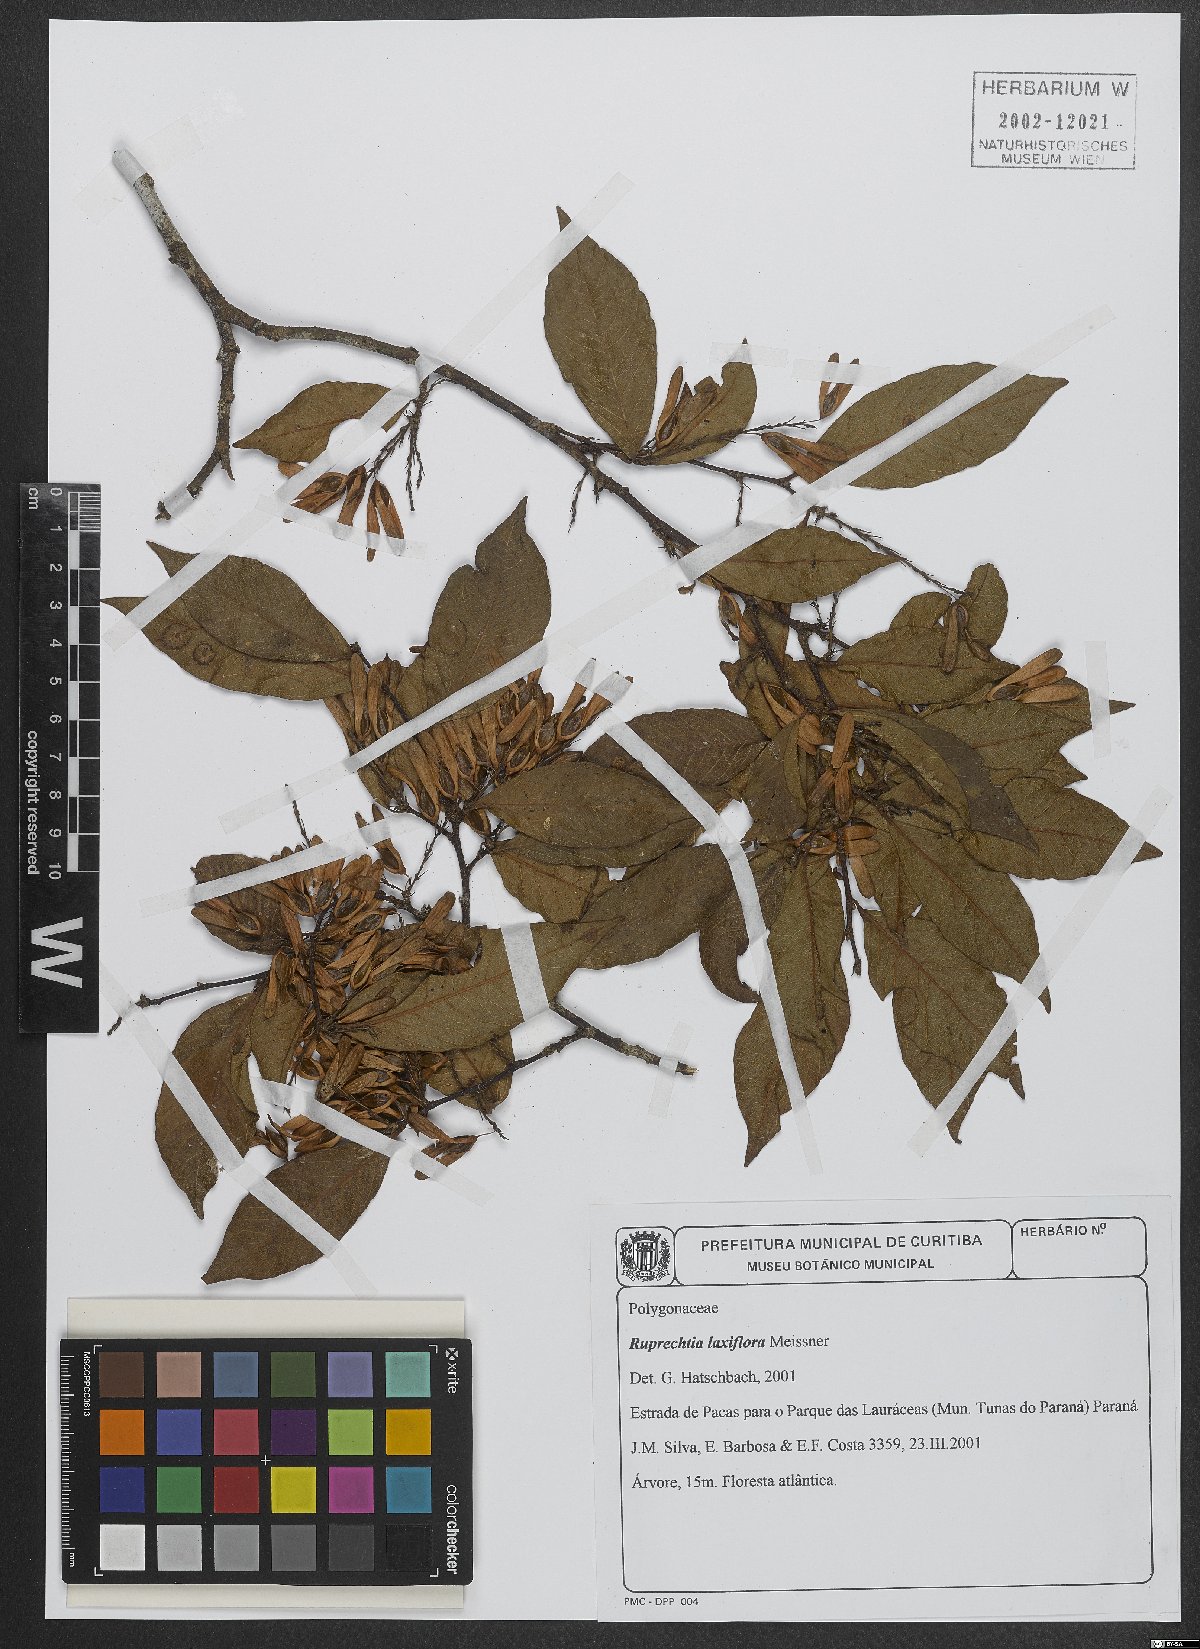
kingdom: Plantae
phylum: Tracheophyta
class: Magnoliopsida
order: Caryophyllales
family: Polygonaceae
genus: Ruprechtia
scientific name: Ruprechtia laxiflora
